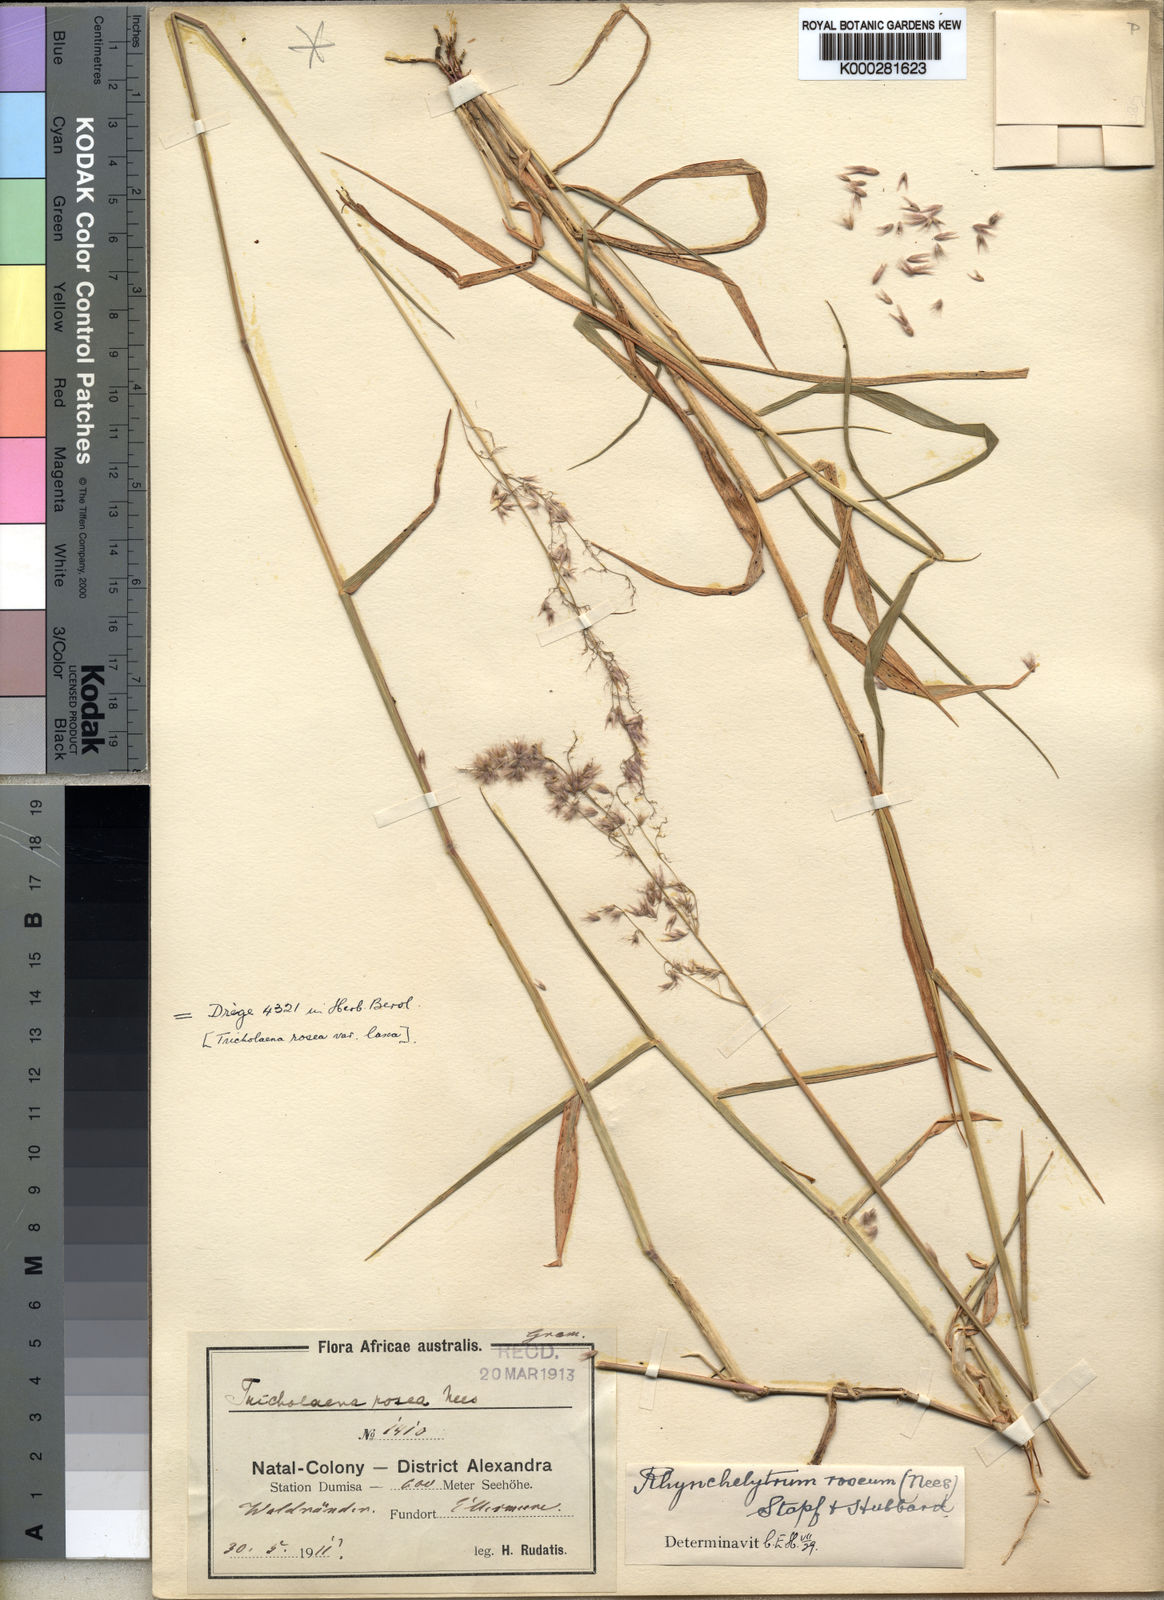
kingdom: Plantae
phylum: Tracheophyta
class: Liliopsida
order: Poales
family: Poaceae
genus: Melinis
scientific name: Melinis repens
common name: Rose natal grass
